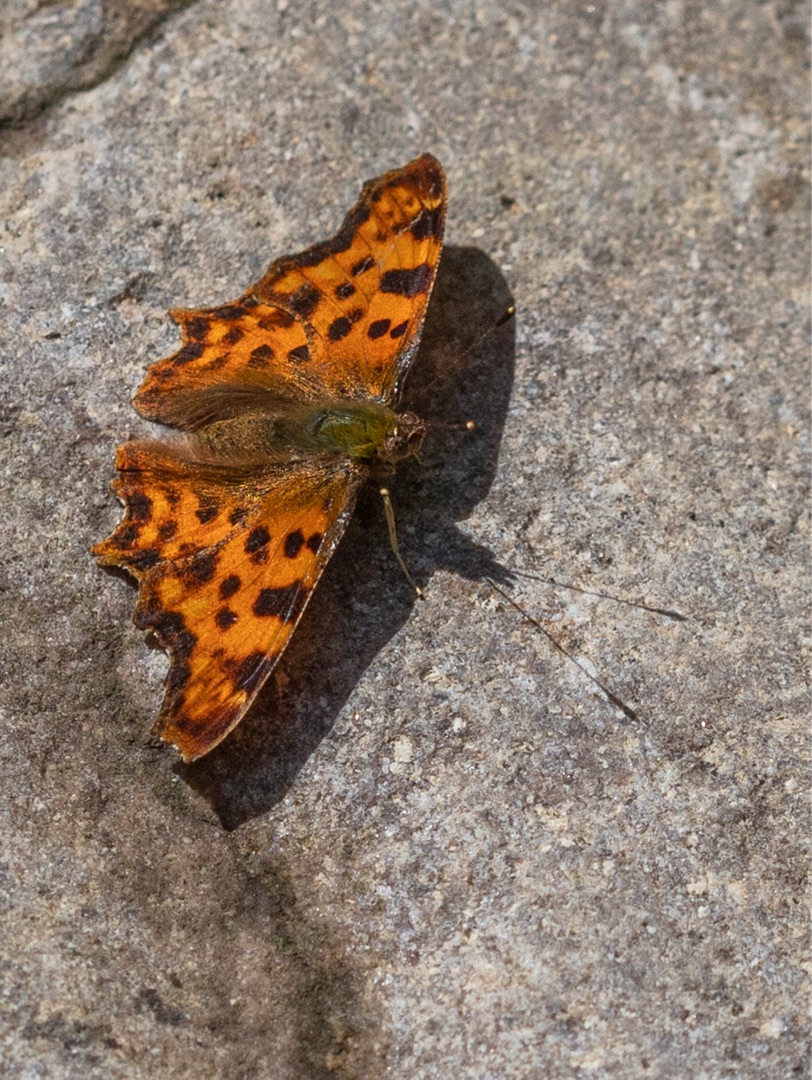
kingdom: Animalia
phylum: Arthropoda
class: Insecta
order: Lepidoptera
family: Nymphalidae
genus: Polygonia
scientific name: Polygonia c-album
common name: Det hvide C
